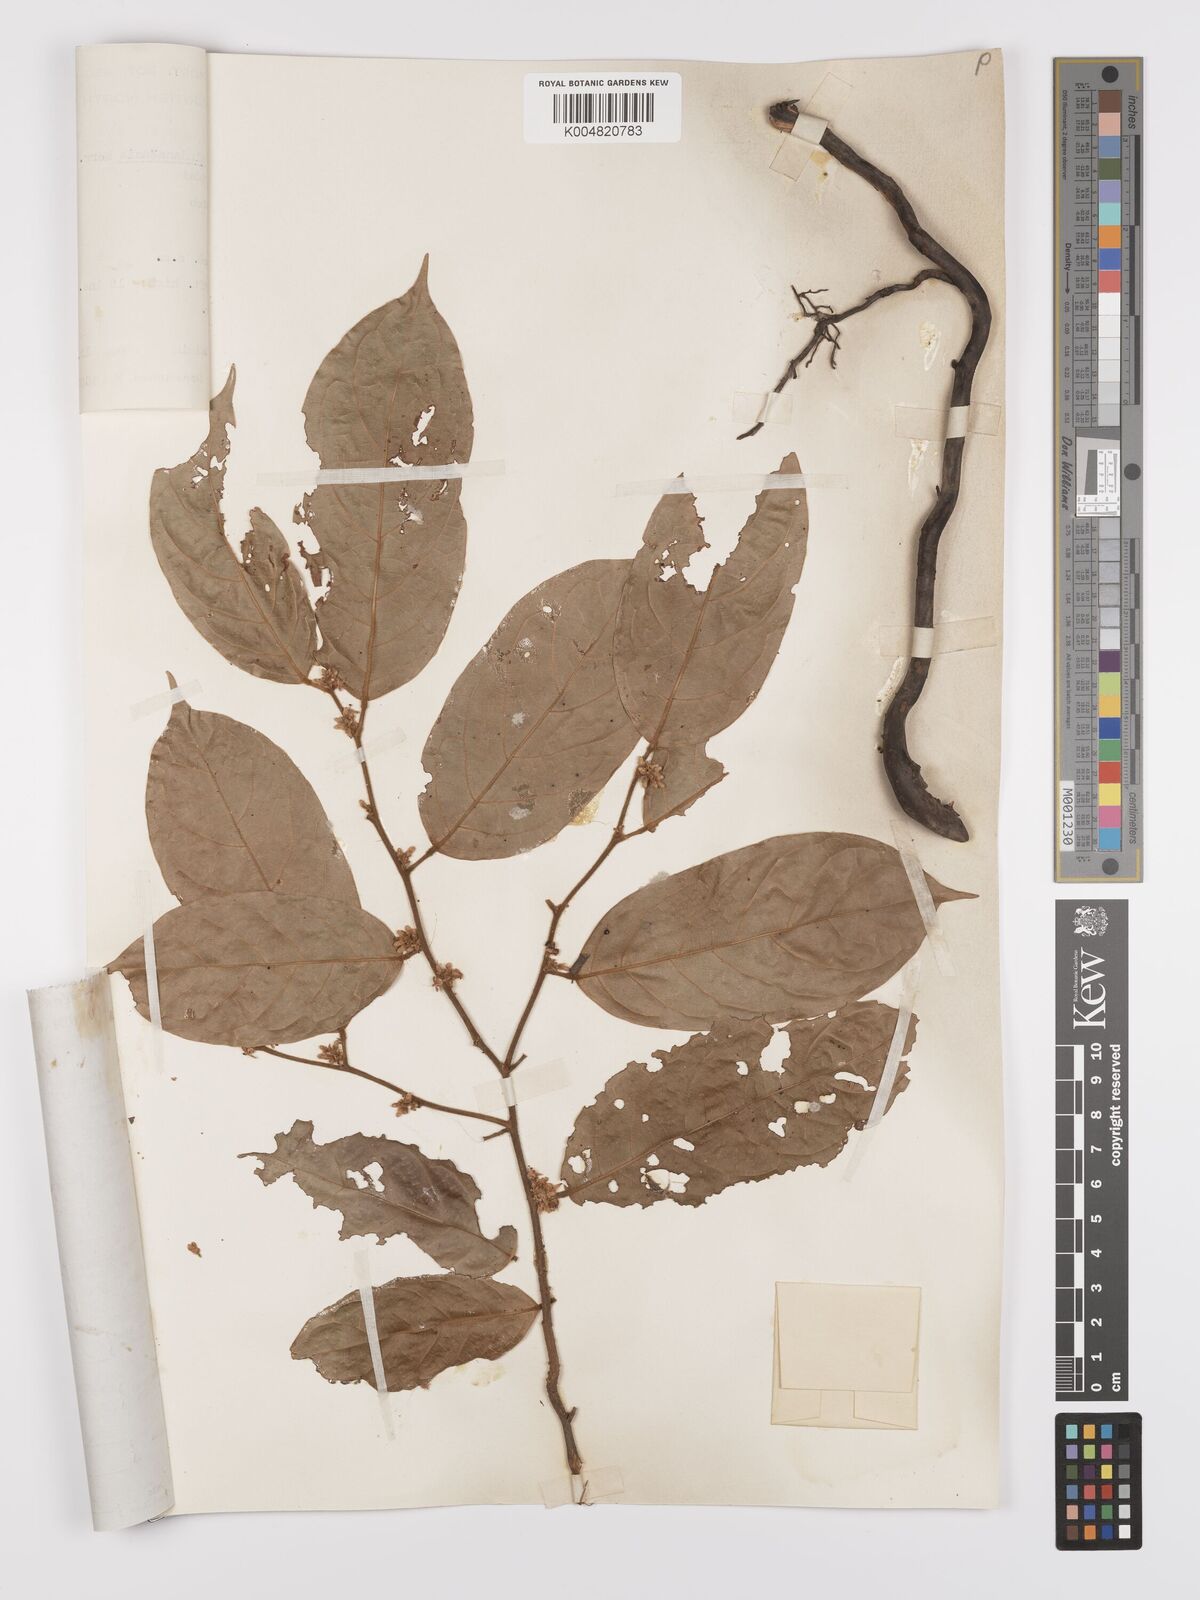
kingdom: Plantae
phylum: Tracheophyta
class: Magnoliopsida
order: Oxalidales
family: Connaraceae
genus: Ellipanthus
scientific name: Ellipanthus beccarii
